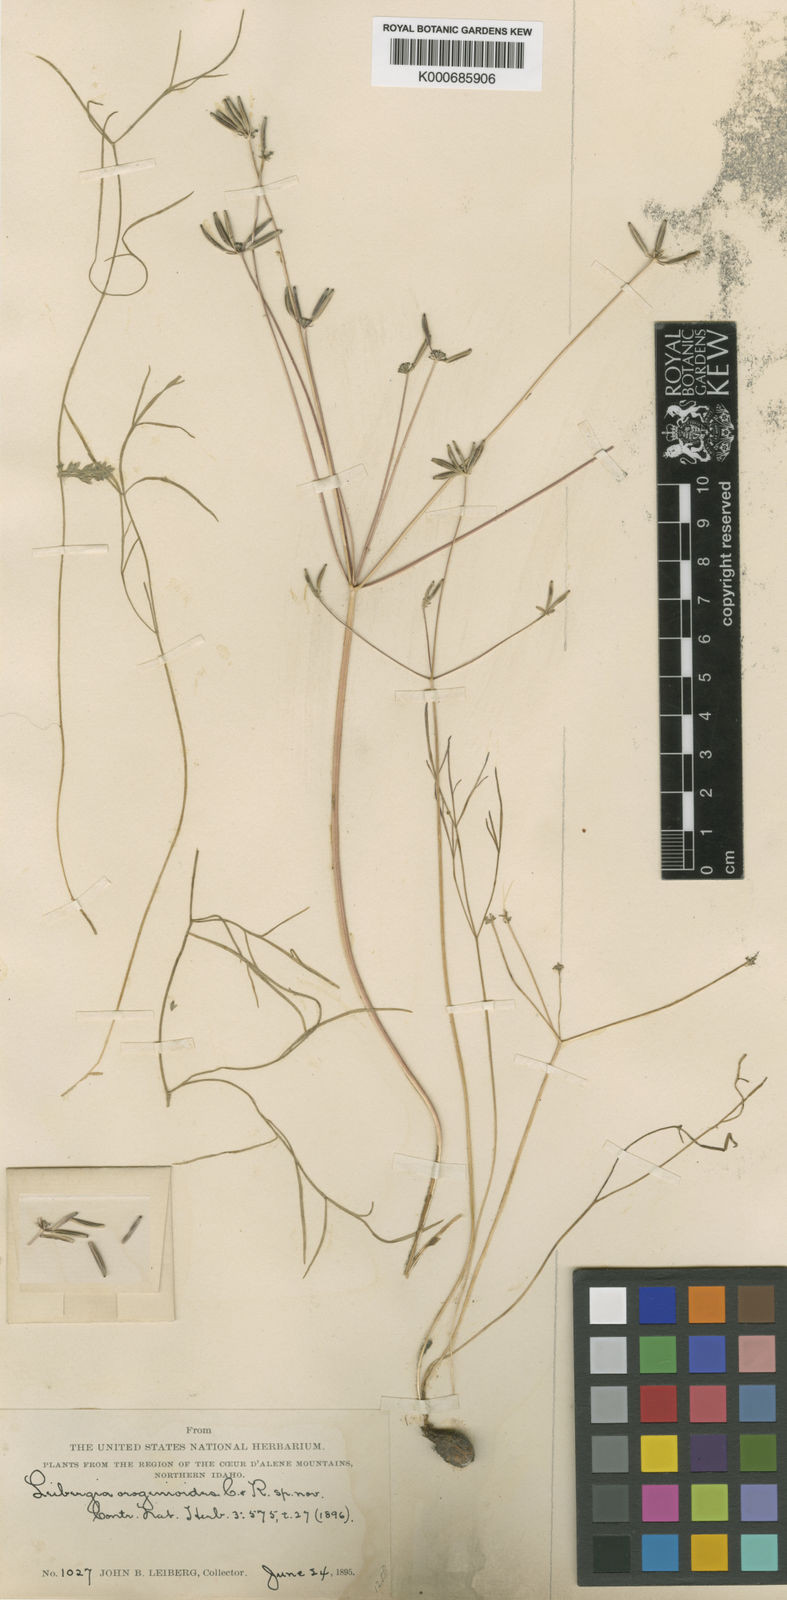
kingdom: Plantae
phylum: Tracheophyta
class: Magnoliopsida
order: Apiales
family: Apiaceae
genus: Lomatium
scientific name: Lomatium tenuissimum
